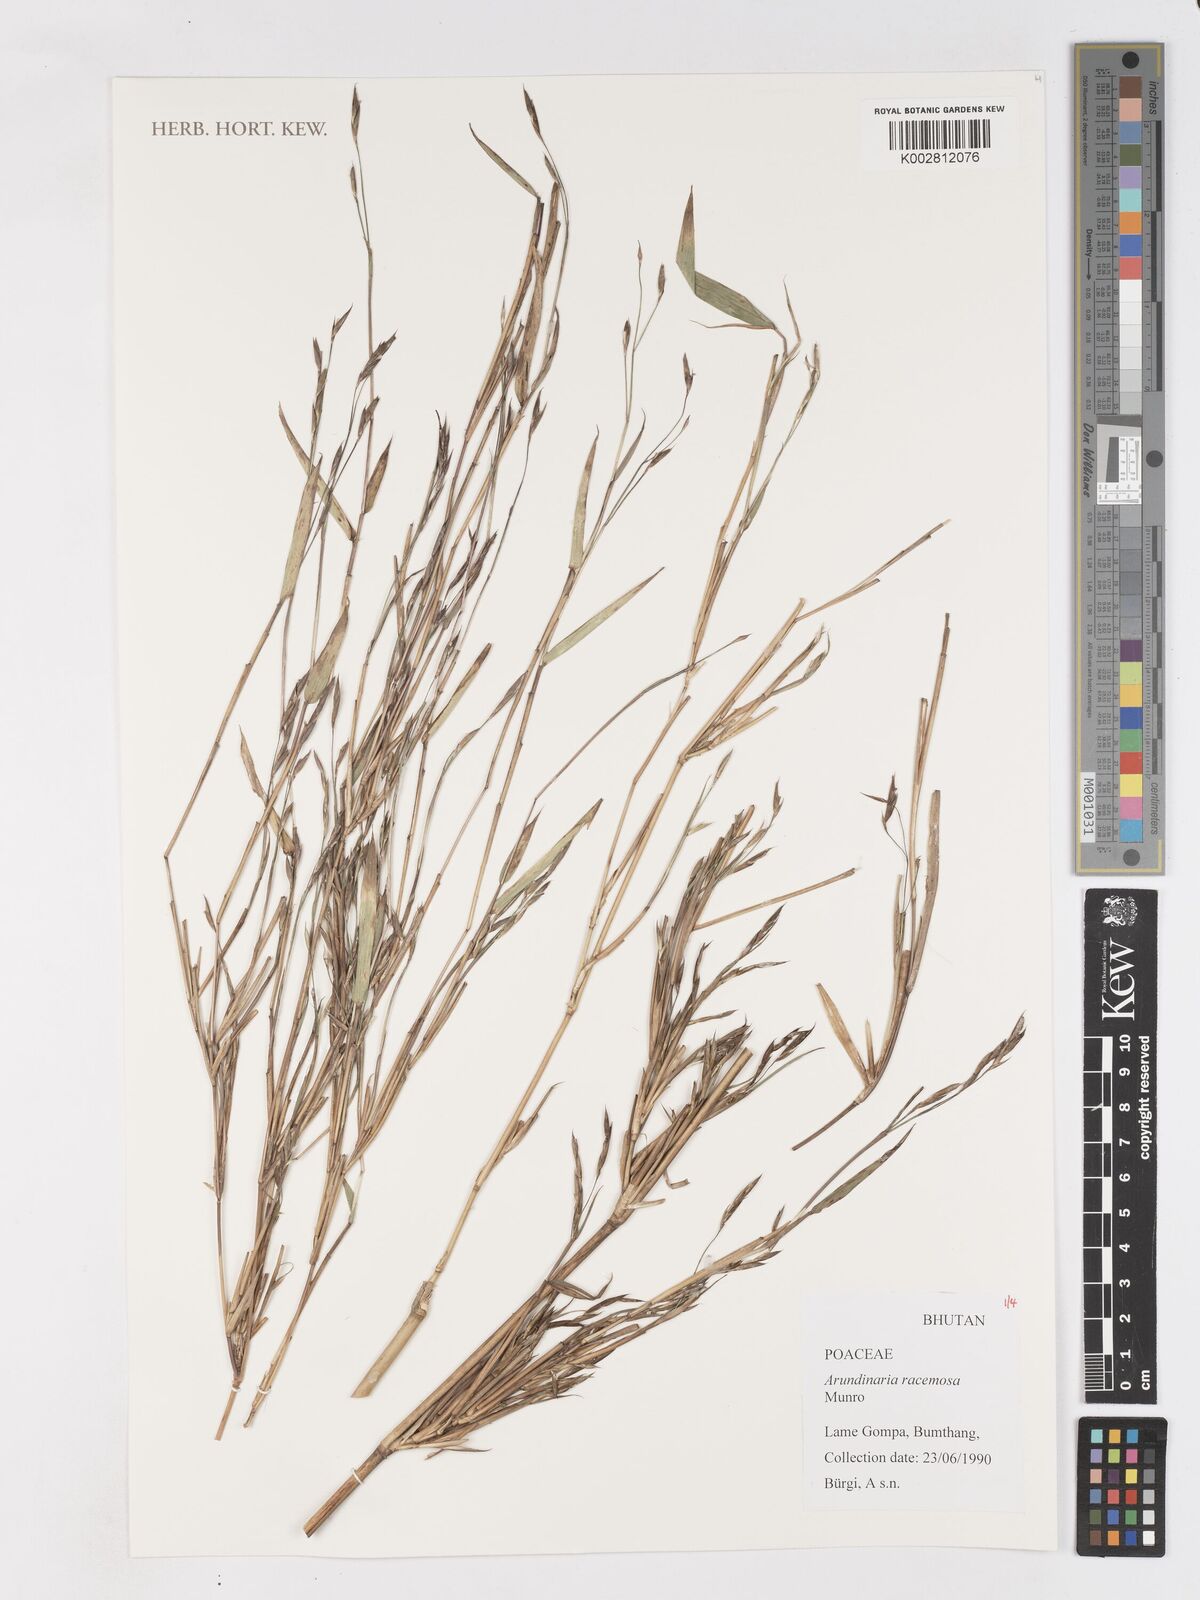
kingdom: Plantae
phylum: Tracheophyta
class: Liliopsida
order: Poales
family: Poaceae
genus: Sarocalamus
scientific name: Sarocalamus racemosus
